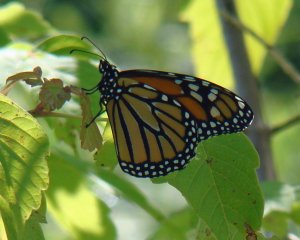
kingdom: Animalia
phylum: Arthropoda
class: Insecta
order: Lepidoptera
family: Nymphalidae
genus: Danaus
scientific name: Danaus plexippus
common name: Monarch
